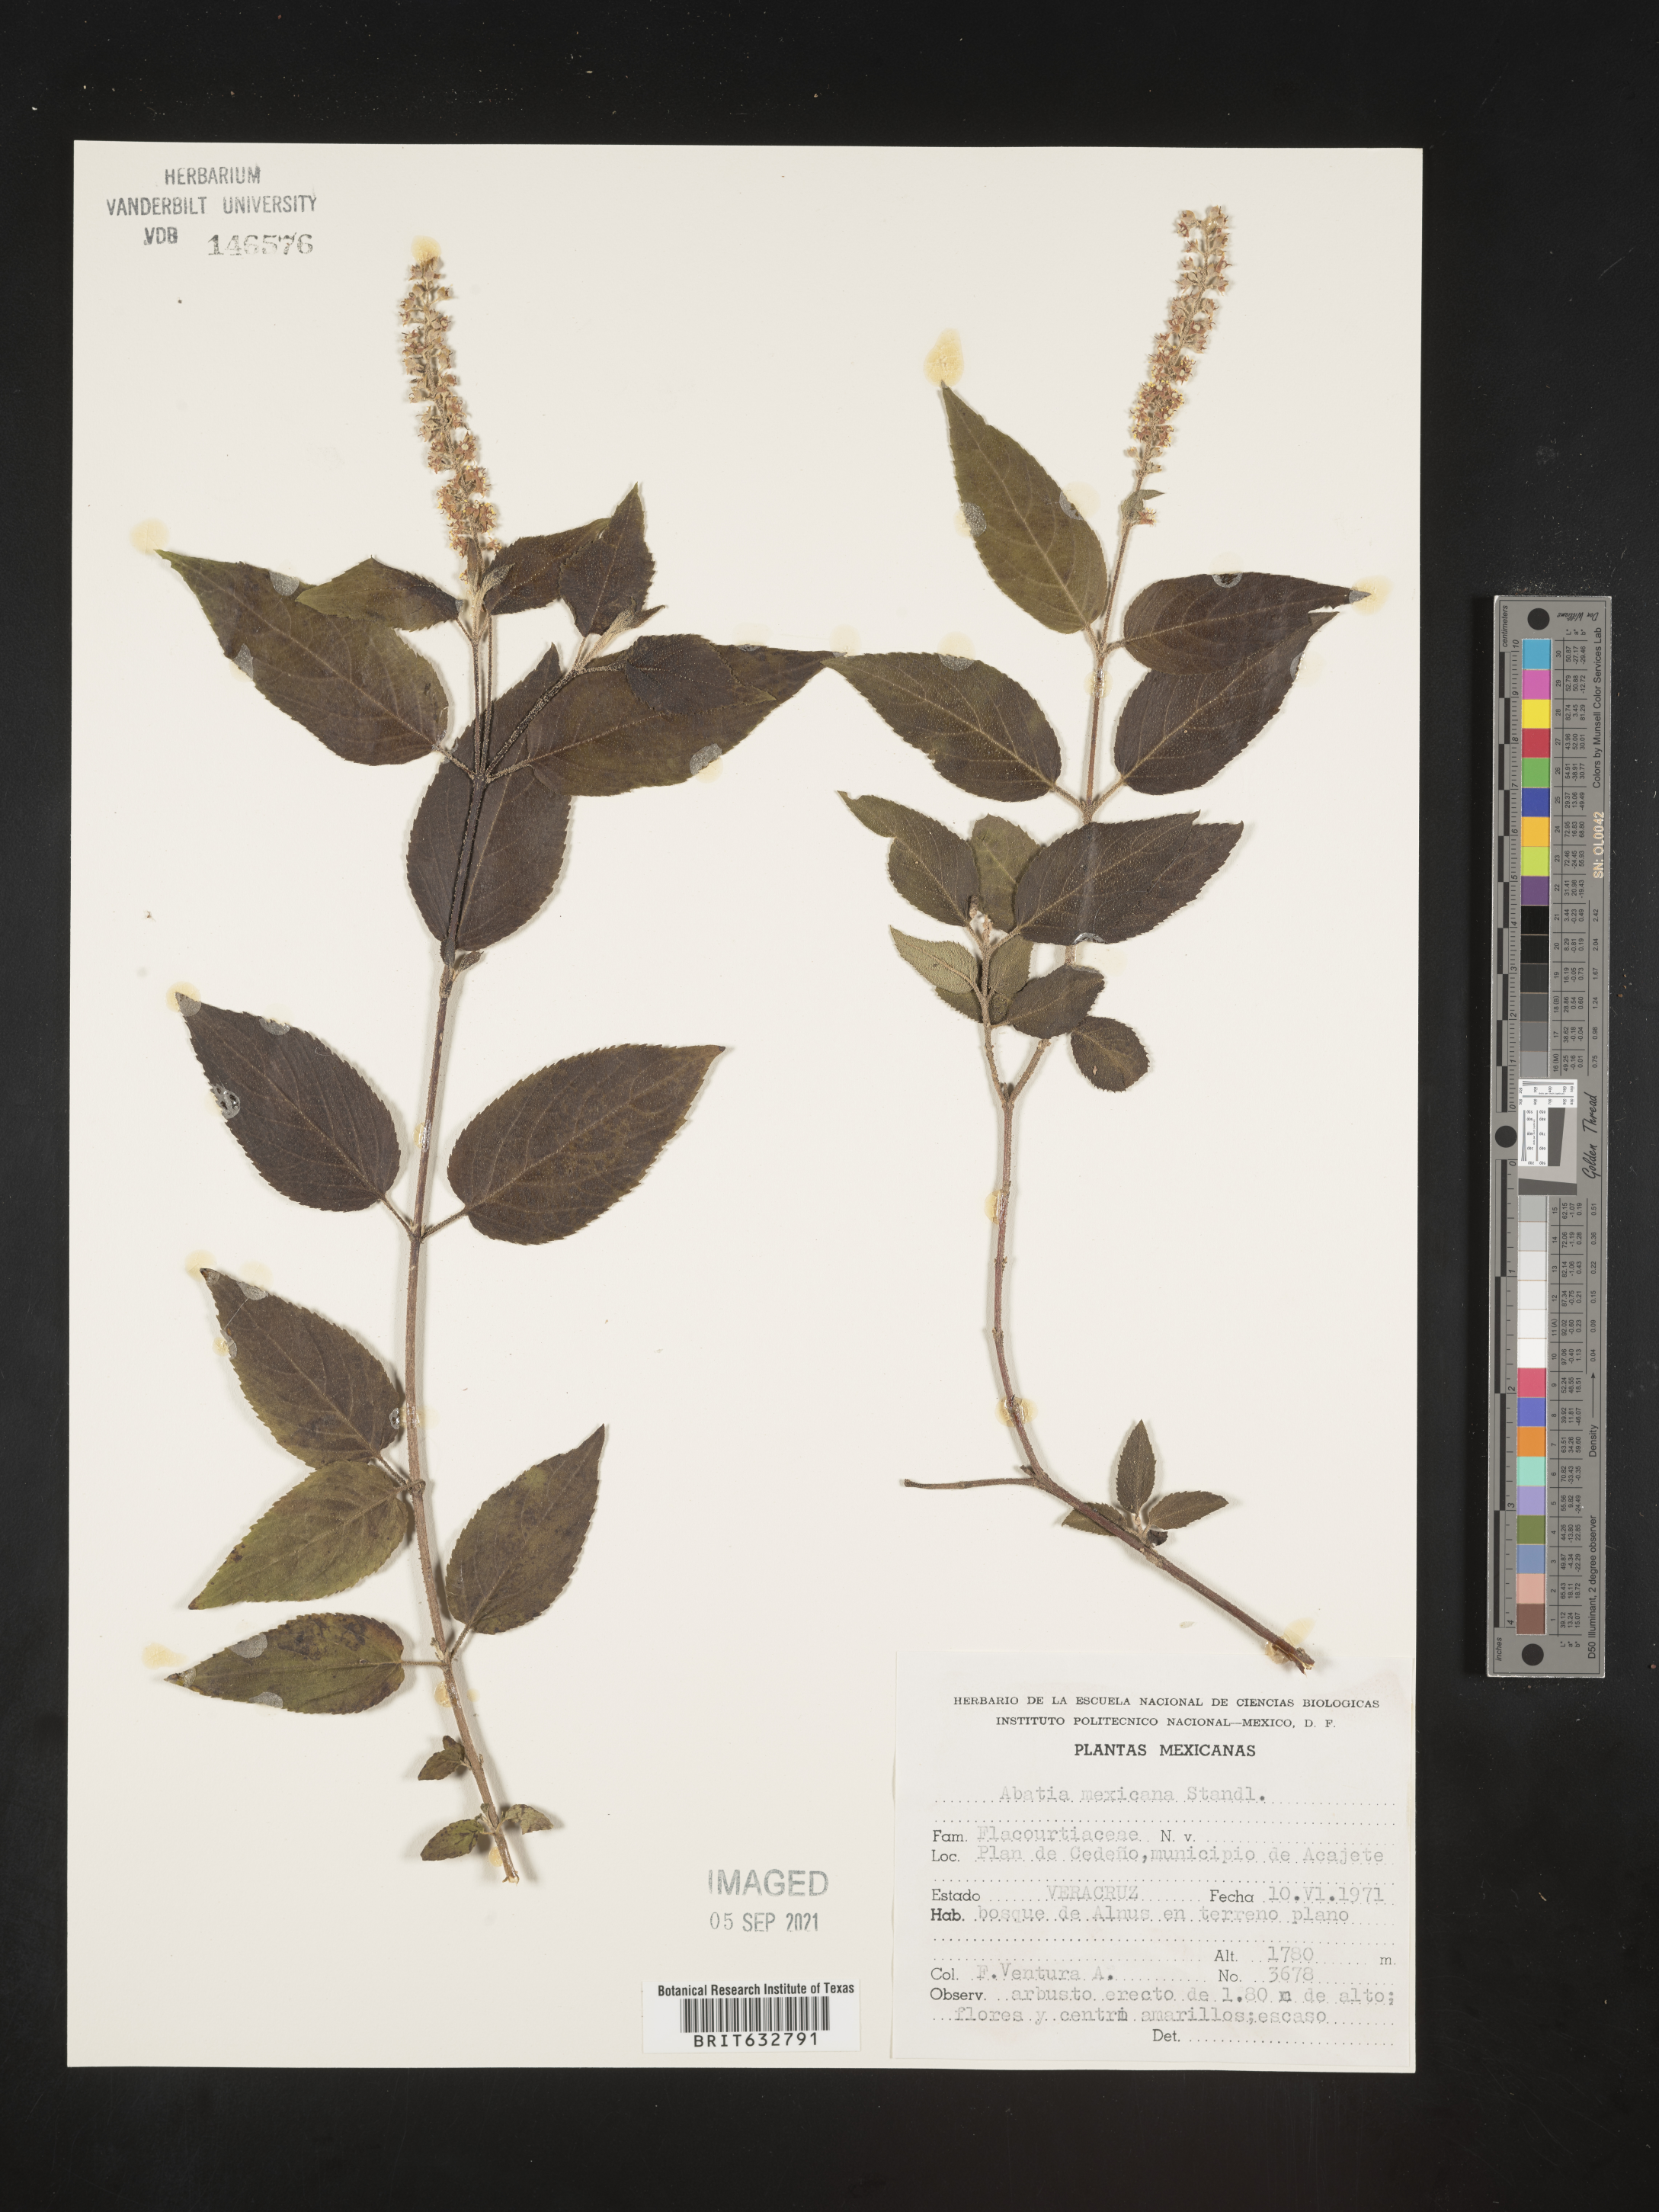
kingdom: Plantae
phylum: Tracheophyta
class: Magnoliopsida
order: Malpighiales
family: Salicaceae
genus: Abatia
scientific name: Abatia mexicana
